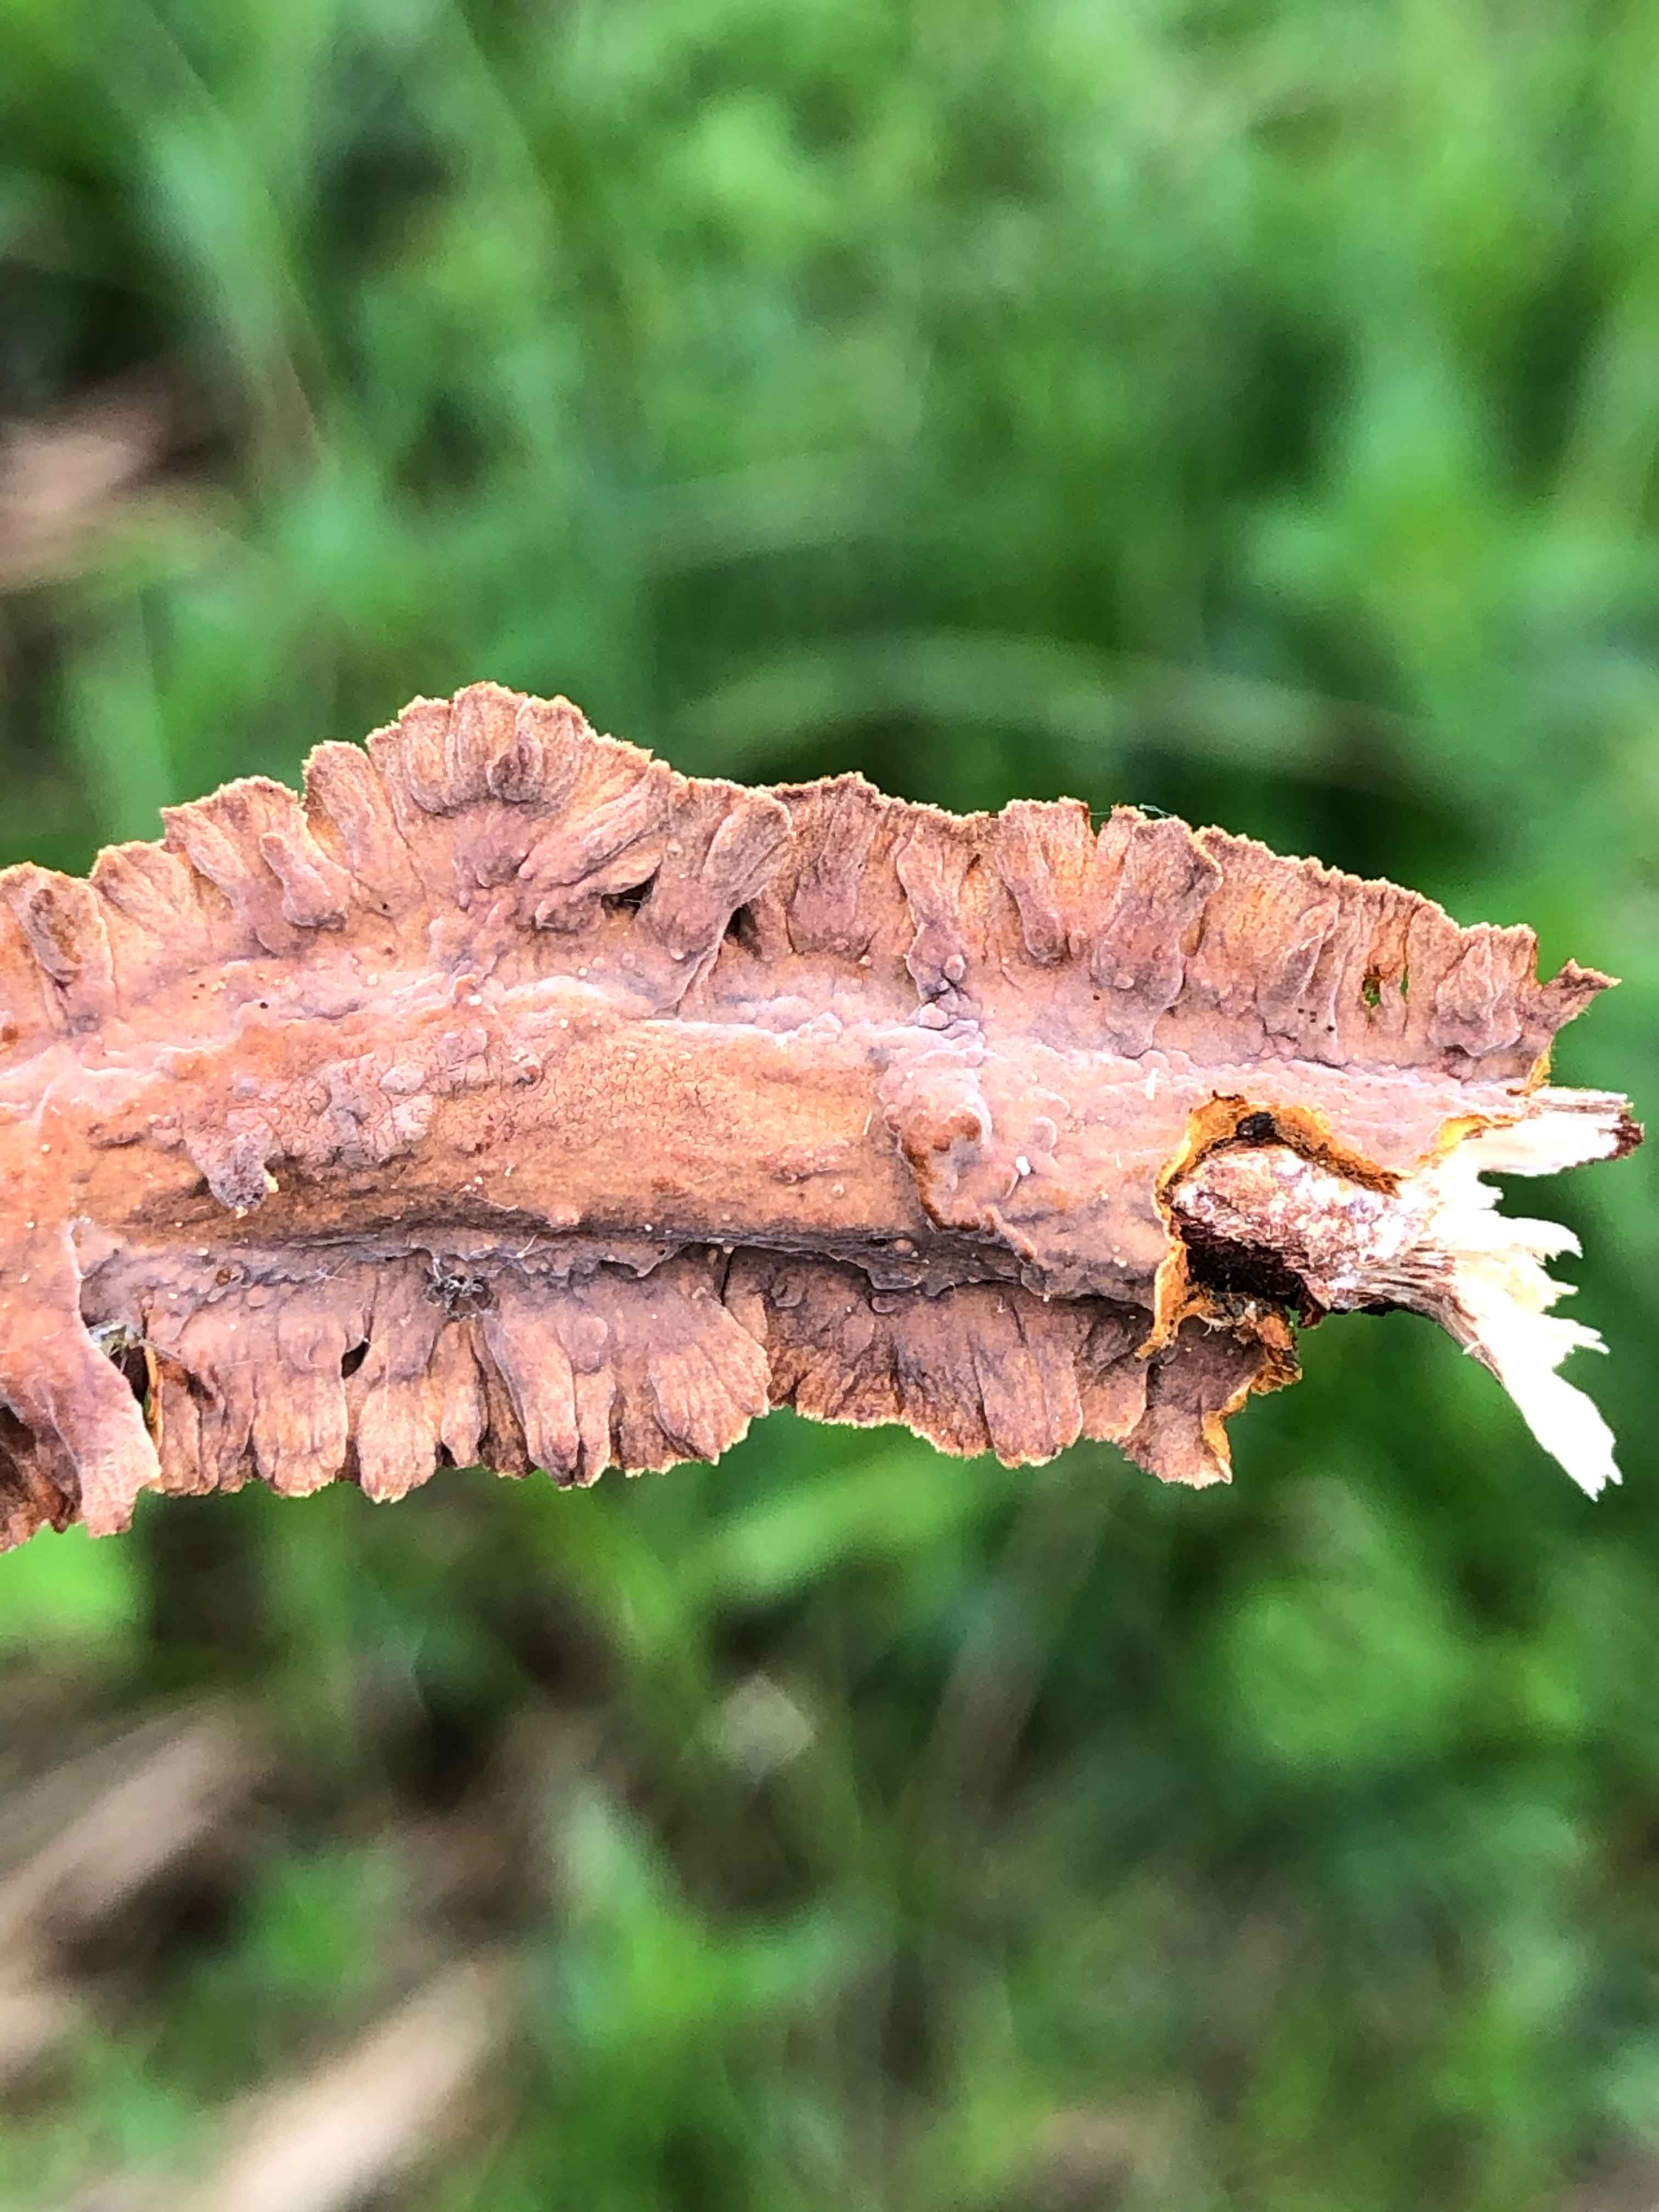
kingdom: Fungi
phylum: Basidiomycota
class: Agaricomycetes
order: Hymenochaetales
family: Hymenochaetaceae
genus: Hydnoporia
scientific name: Hydnoporia tabacina
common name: tobaksbrun ruslædersvamp
